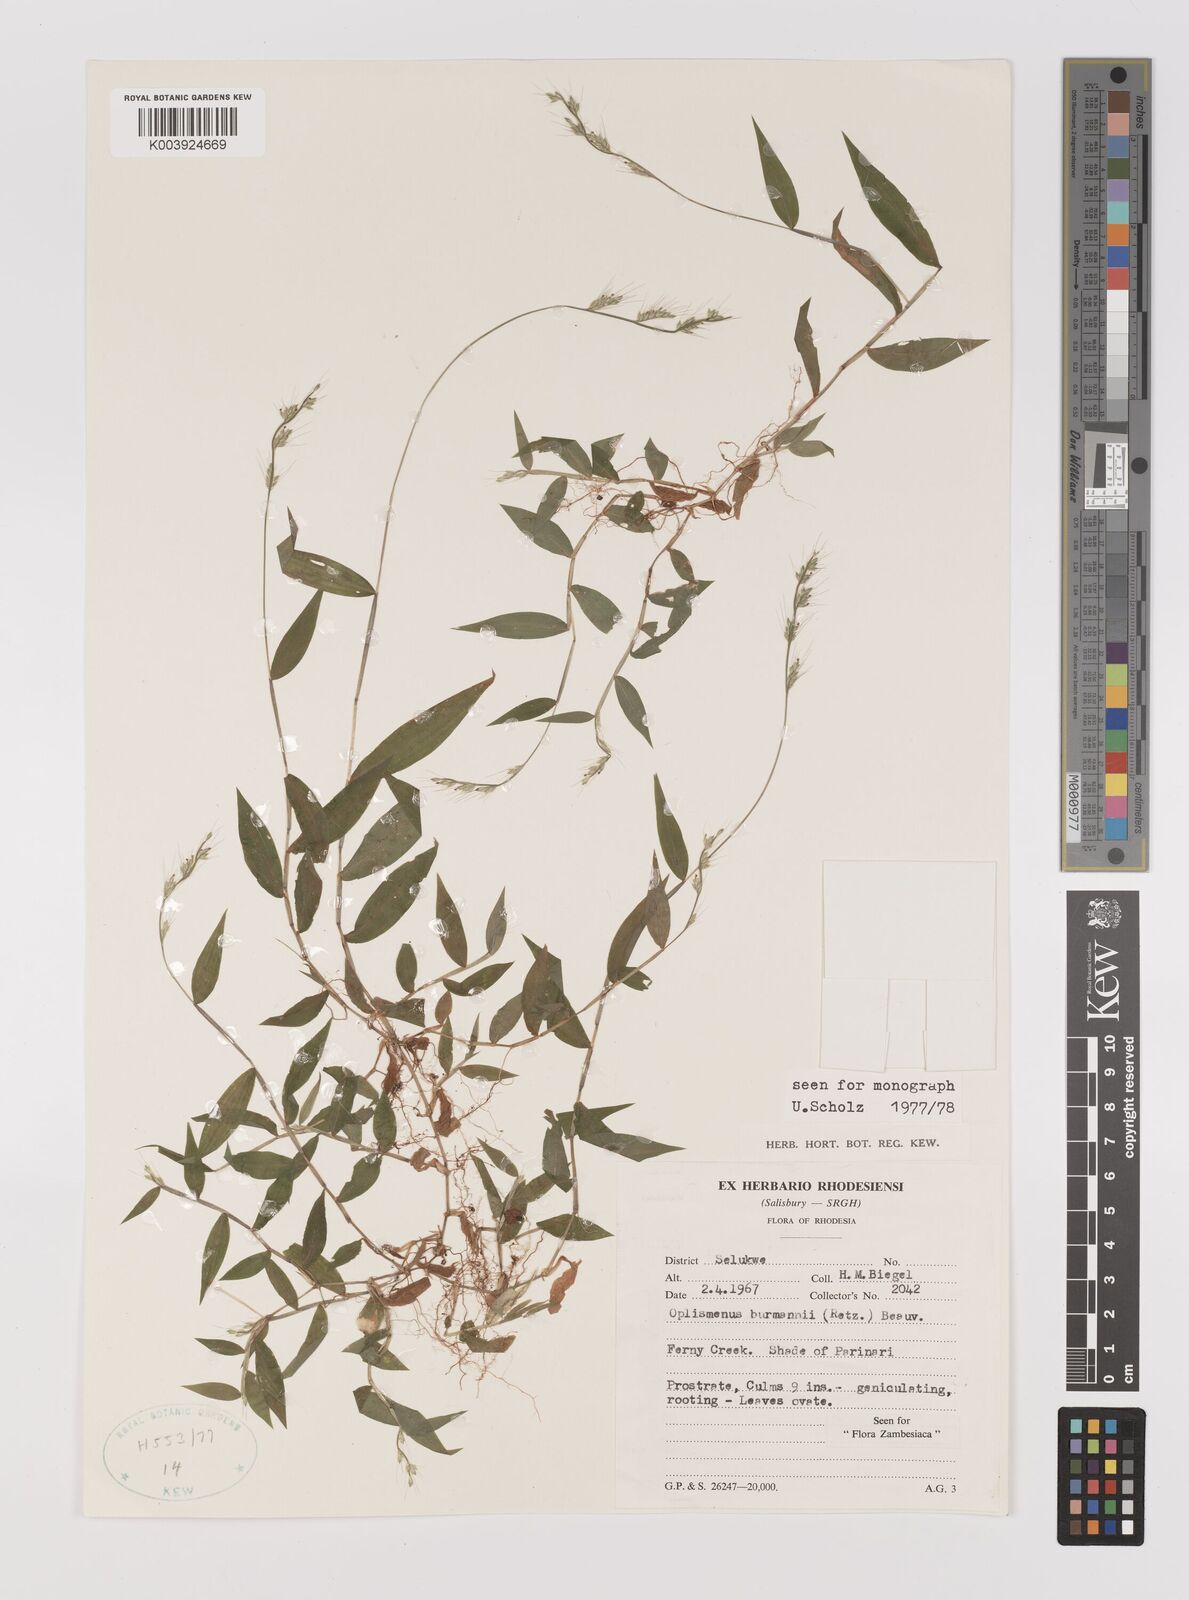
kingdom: Plantae
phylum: Tracheophyta
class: Liliopsida
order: Poales
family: Poaceae
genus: Oplismenus
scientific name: Oplismenus burmanni
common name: Burmann's basketgrass
